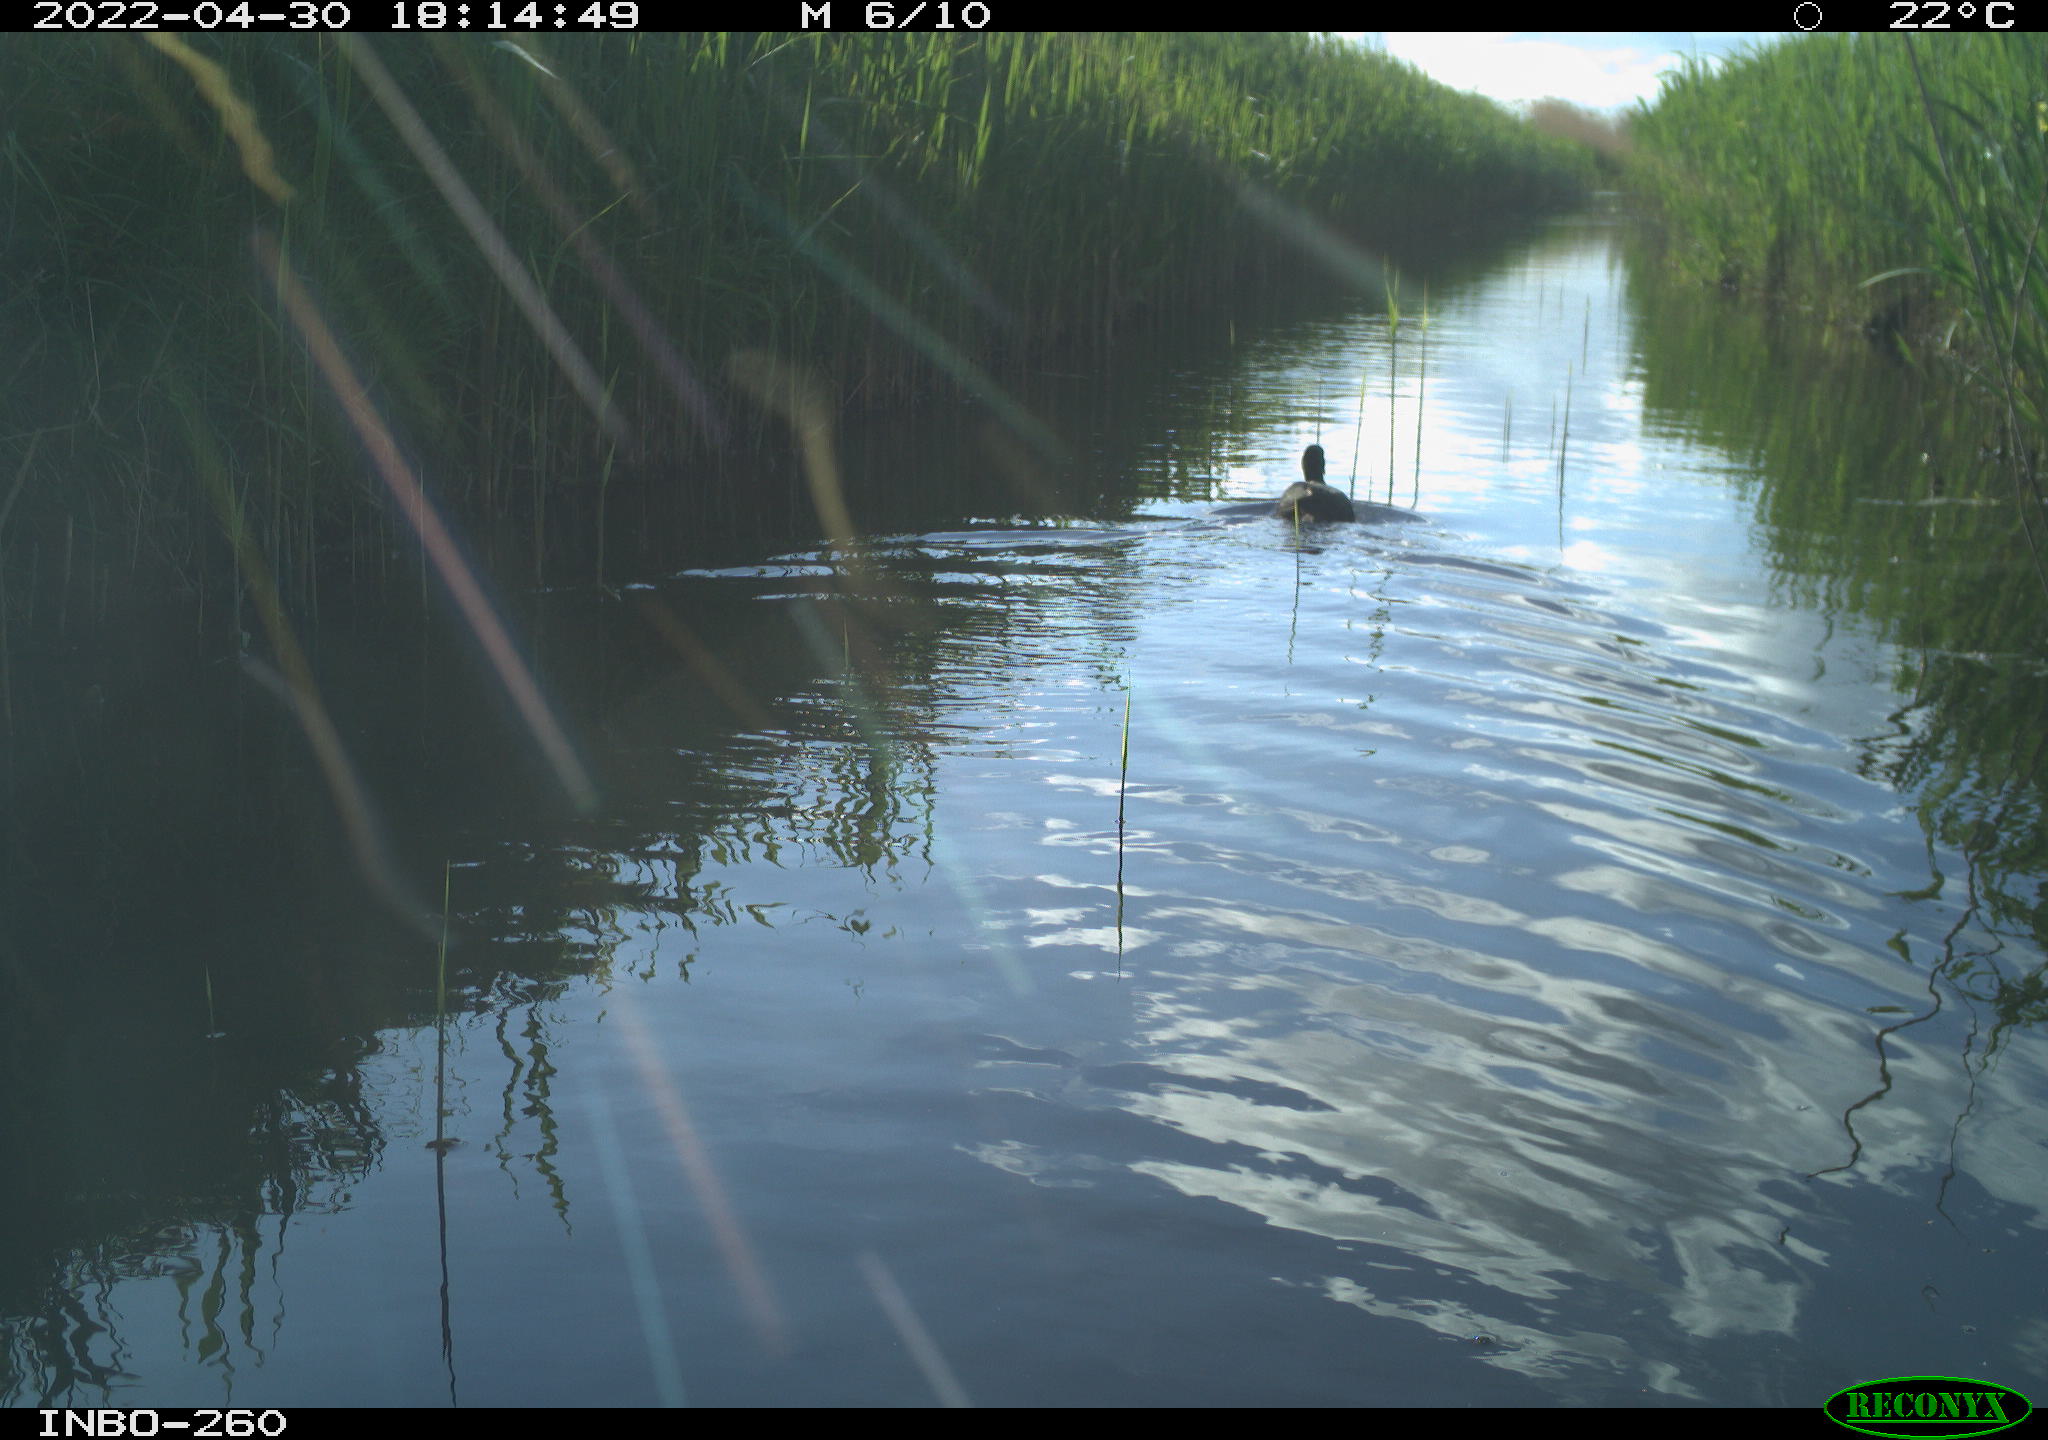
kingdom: Animalia
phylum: Chordata
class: Aves
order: Gruiformes
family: Rallidae
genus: Fulica
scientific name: Fulica atra
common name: Eurasian coot
